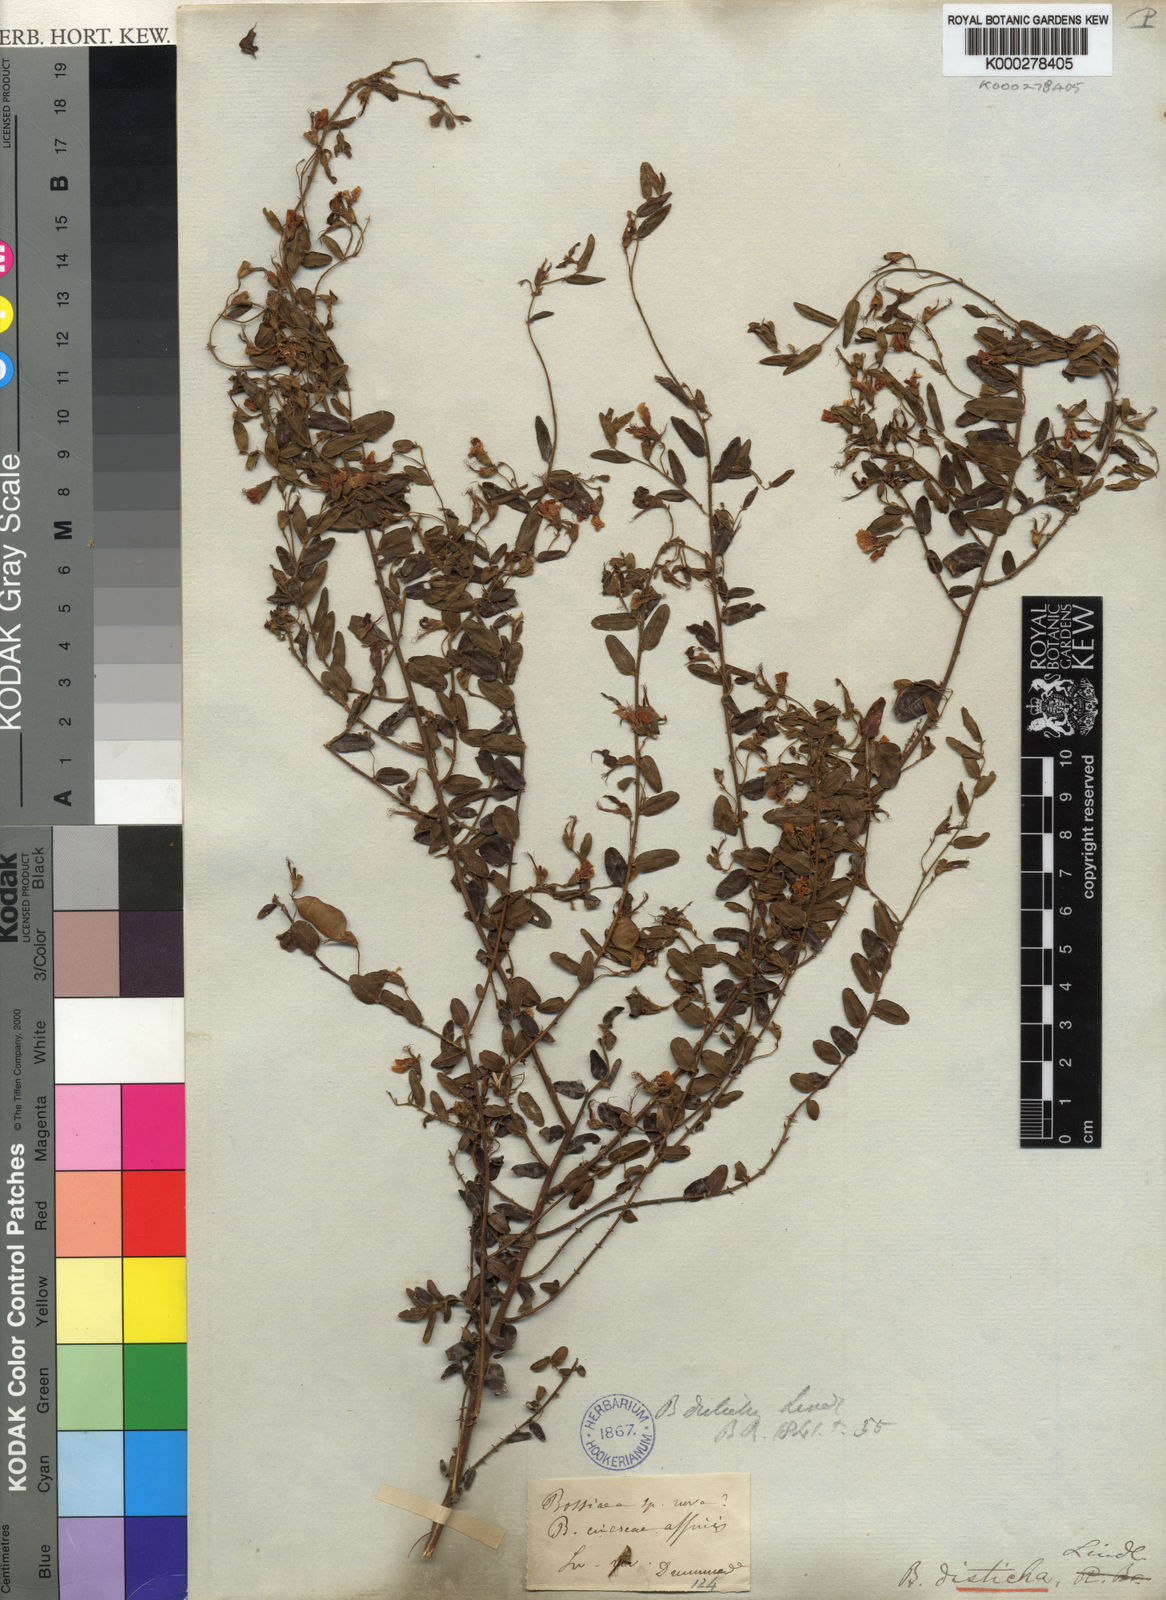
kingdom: Plantae
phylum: Tracheophyta
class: Magnoliopsida
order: Fabales
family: Fabaceae
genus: Bossiaea
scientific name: Bossiaea disticha
